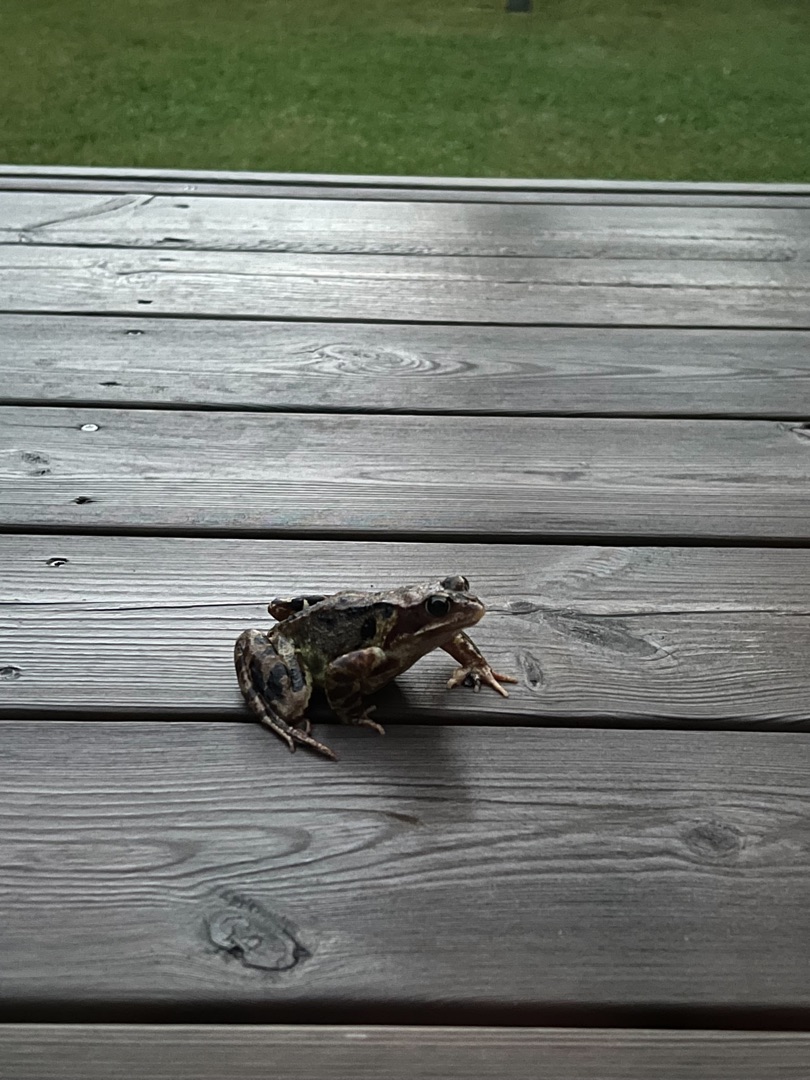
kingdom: Animalia
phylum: Chordata
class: Amphibia
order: Anura
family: Ranidae
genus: Rana
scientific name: Rana temporaria
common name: Butsnudet frø
